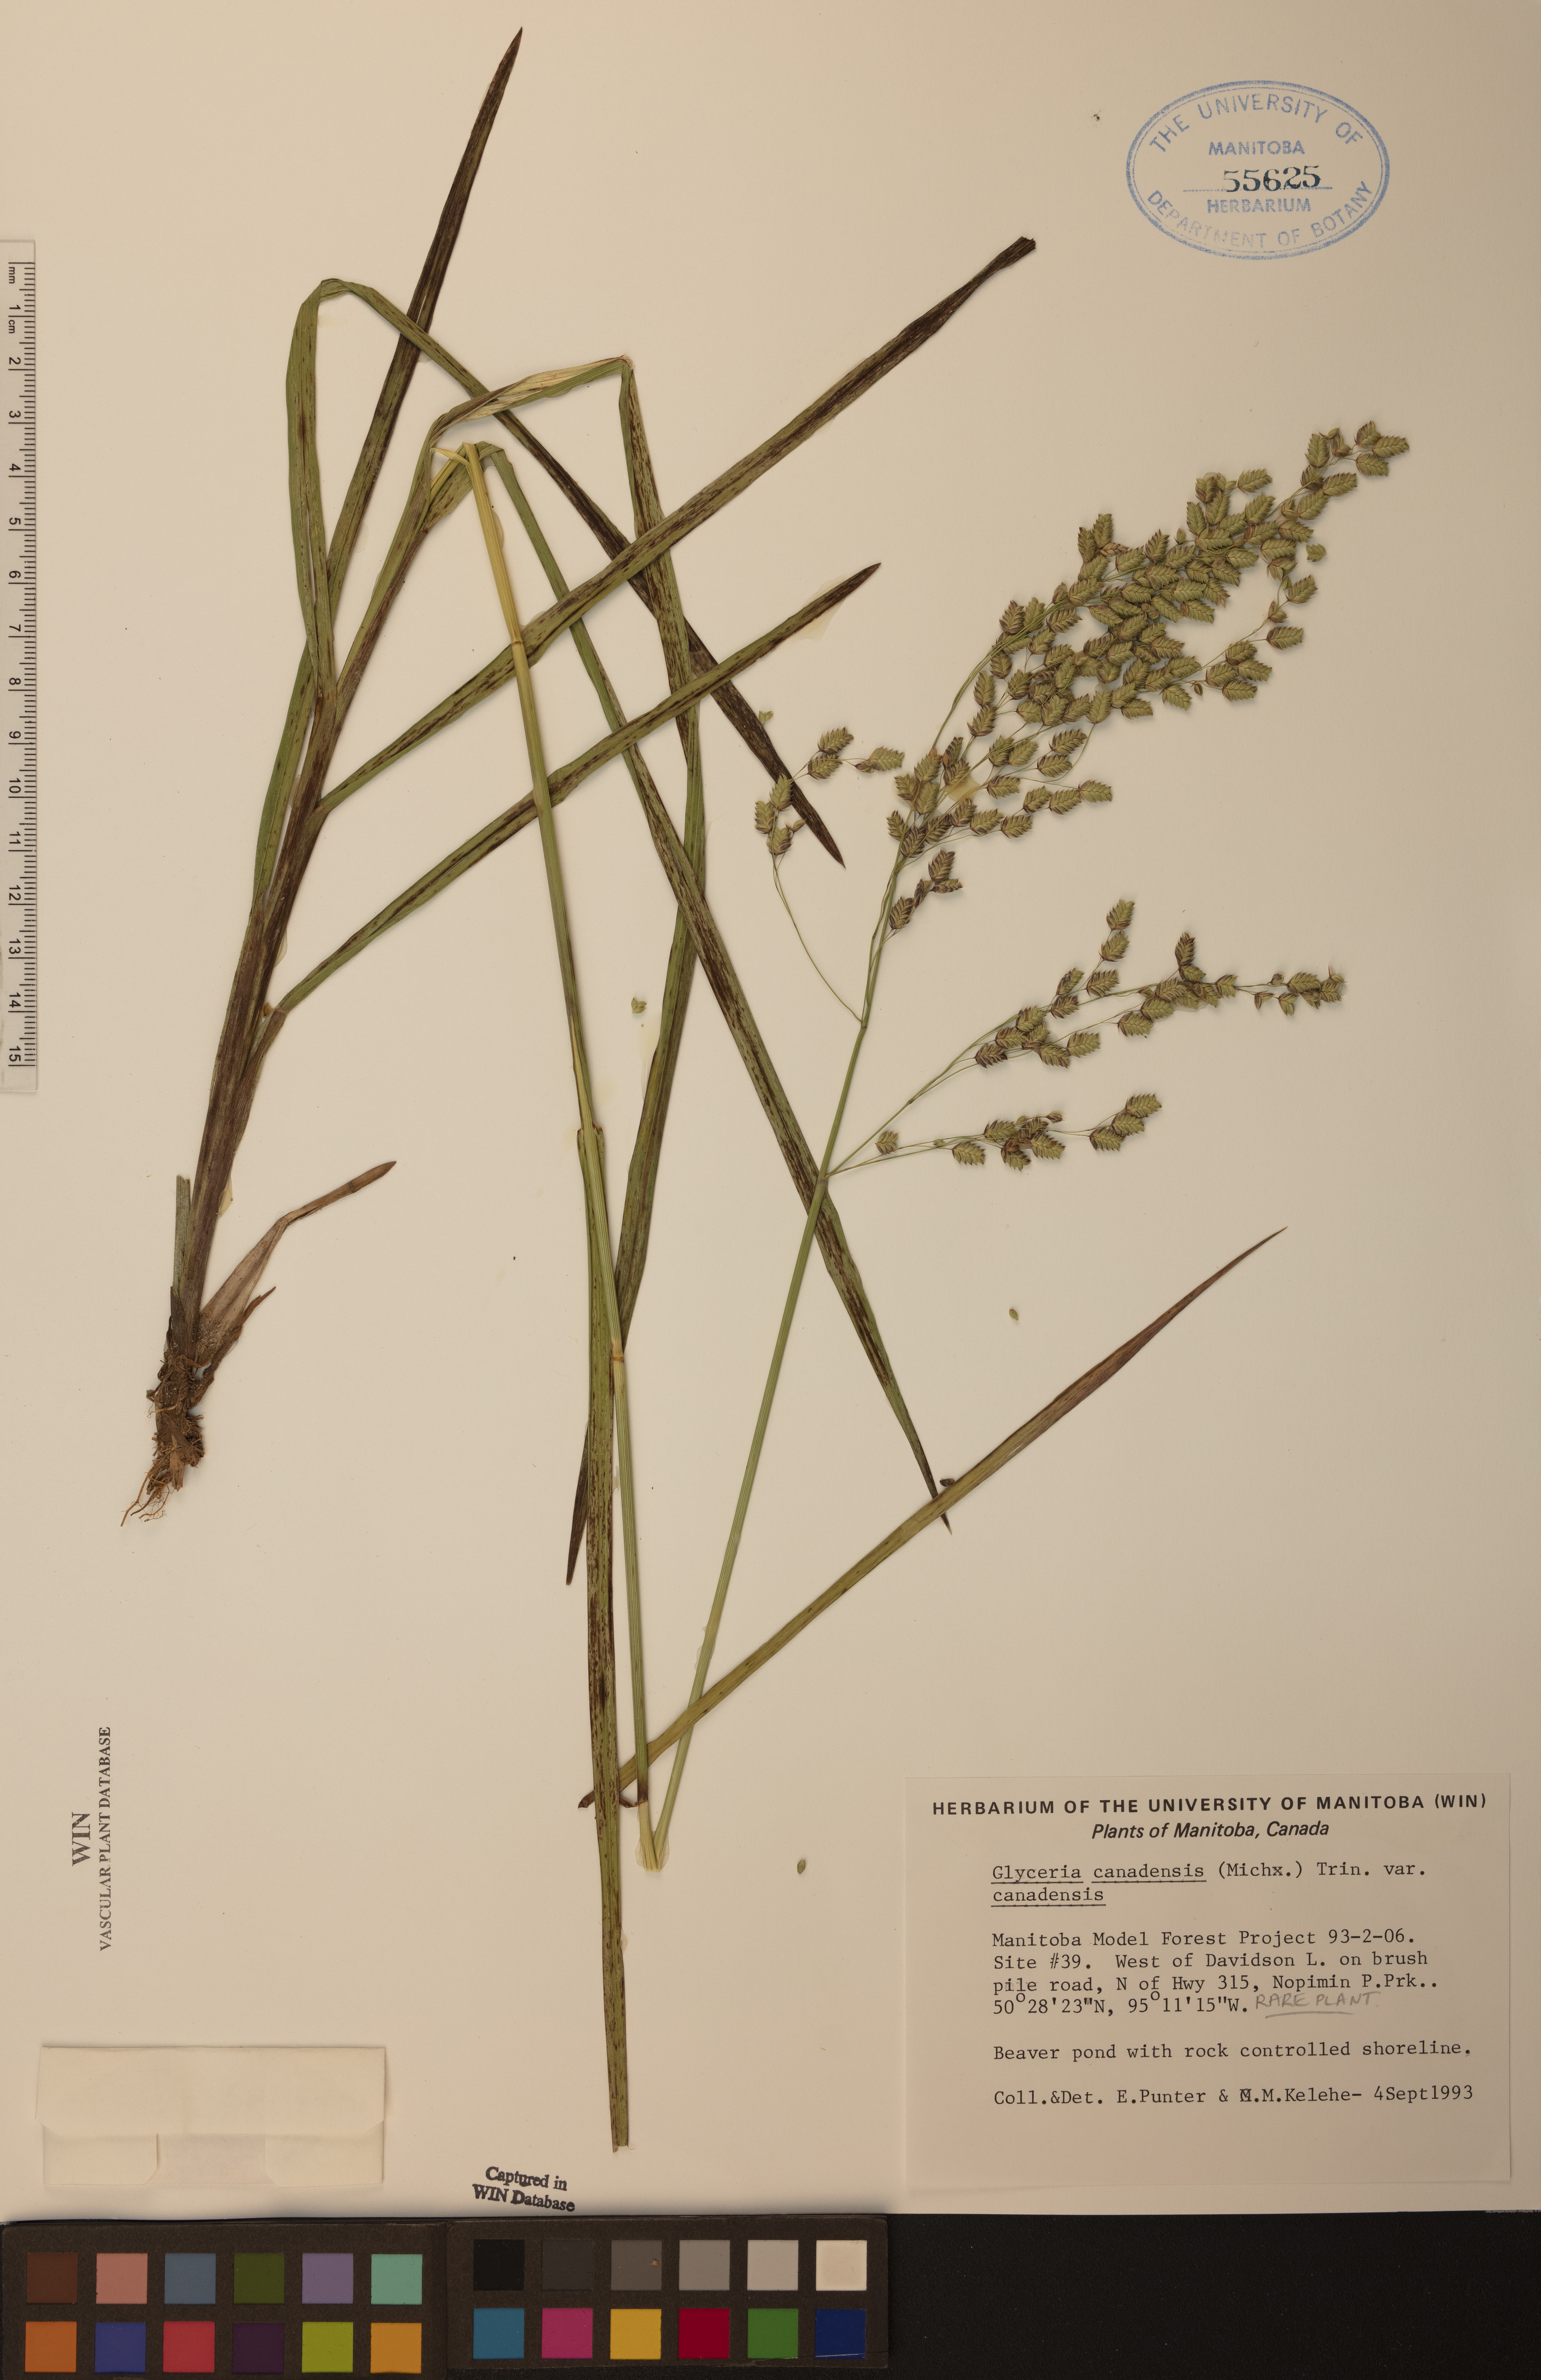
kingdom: Plantae
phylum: Tracheophyta
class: Liliopsida
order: Poales
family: Poaceae
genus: Glyceria
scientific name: Glyceria canadensis
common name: Canada mannagrass
